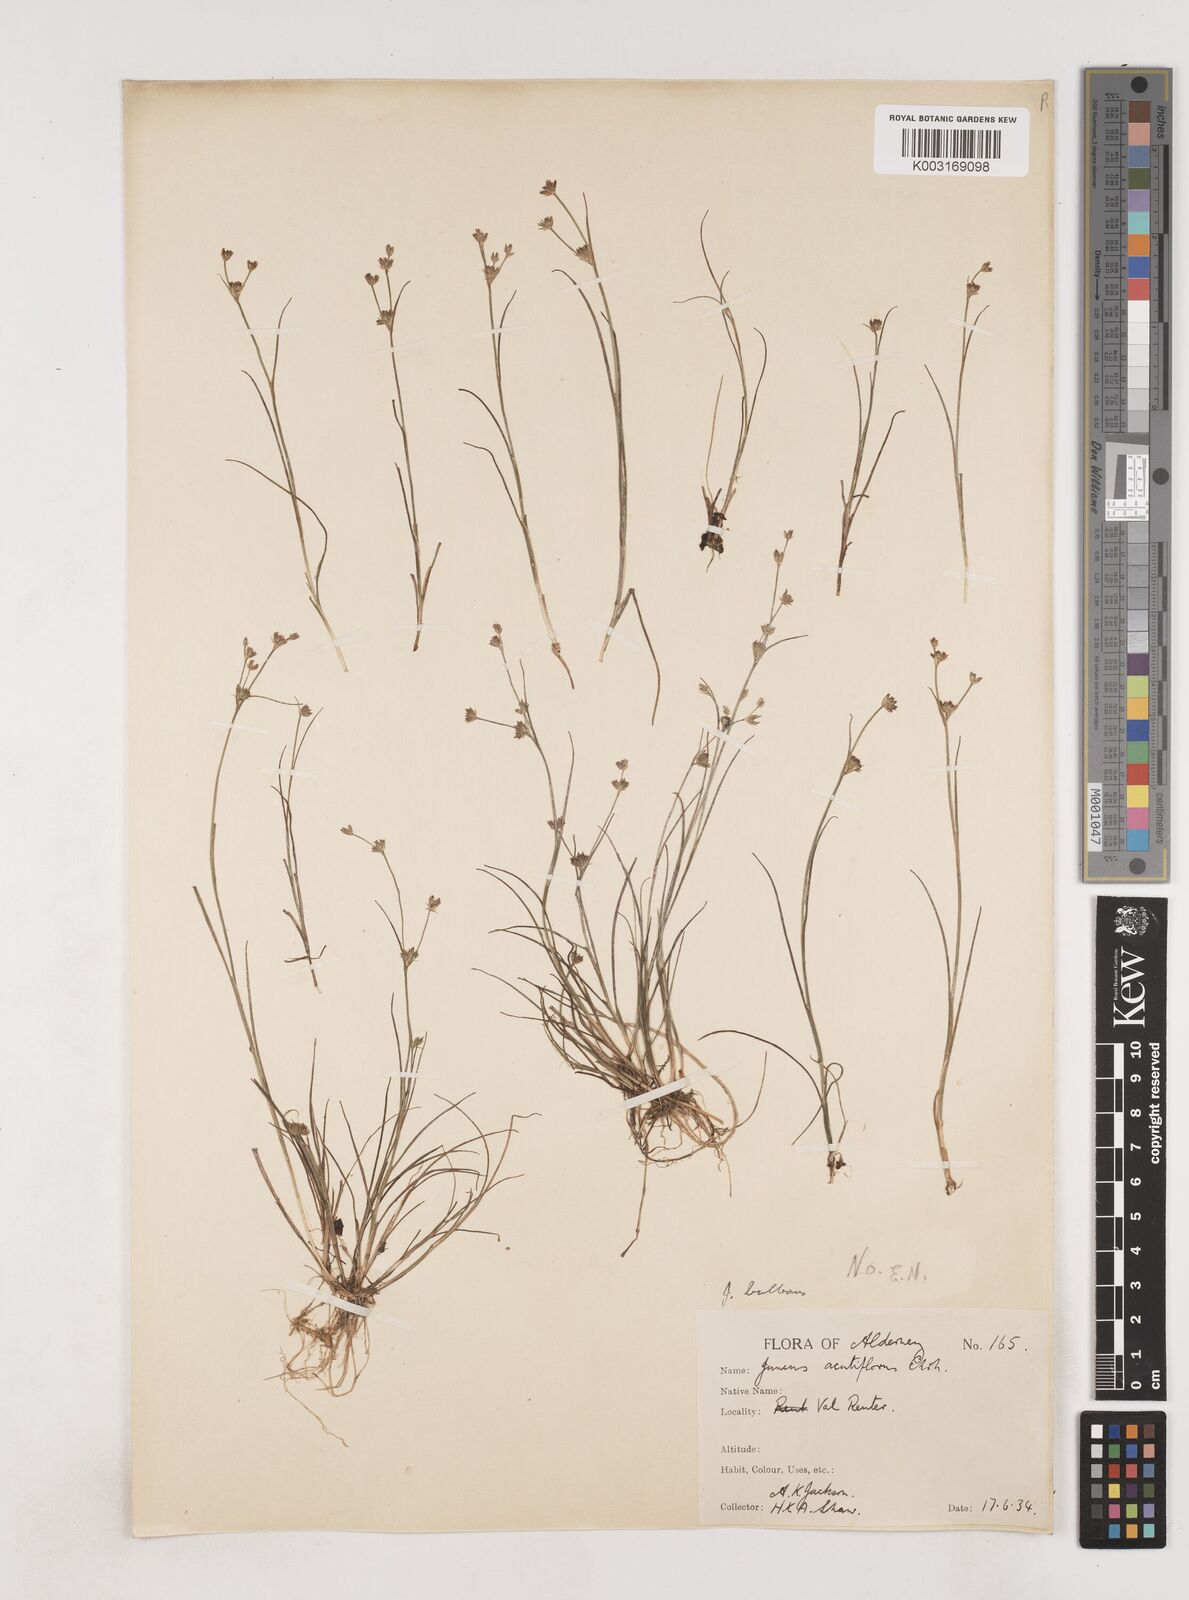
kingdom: Plantae
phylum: Tracheophyta
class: Liliopsida
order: Poales
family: Juncaceae
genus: Juncus
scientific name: Juncus bulbosus
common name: Bulbous rush
